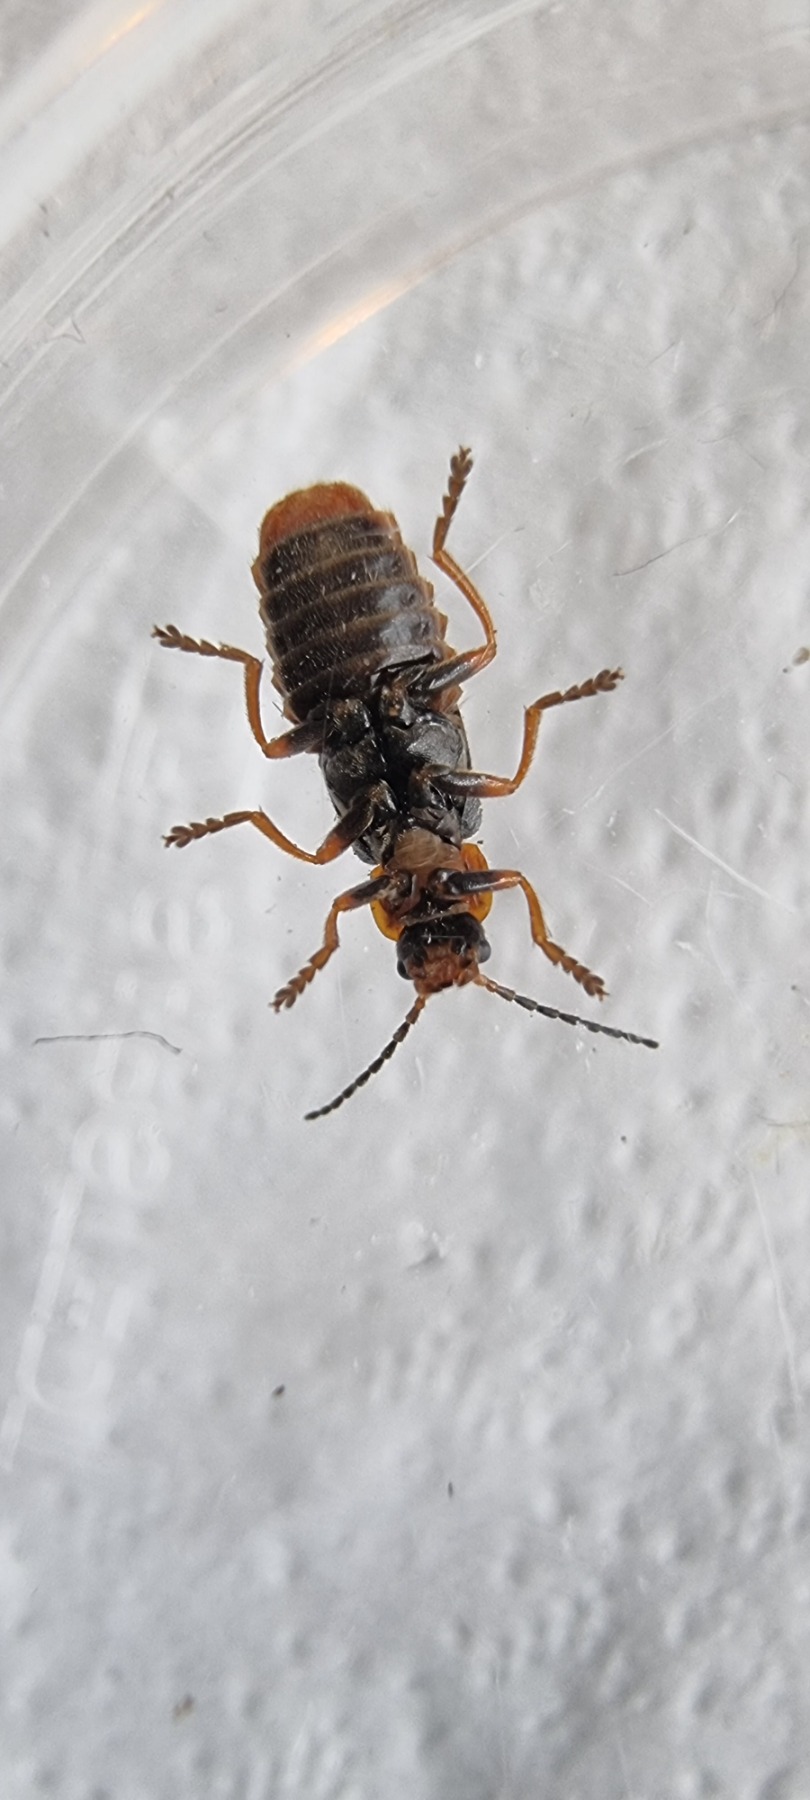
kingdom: Animalia
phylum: Arthropoda
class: Insecta
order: Coleoptera
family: Cantharidae
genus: Cantharis
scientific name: Cantharis flavilabris
